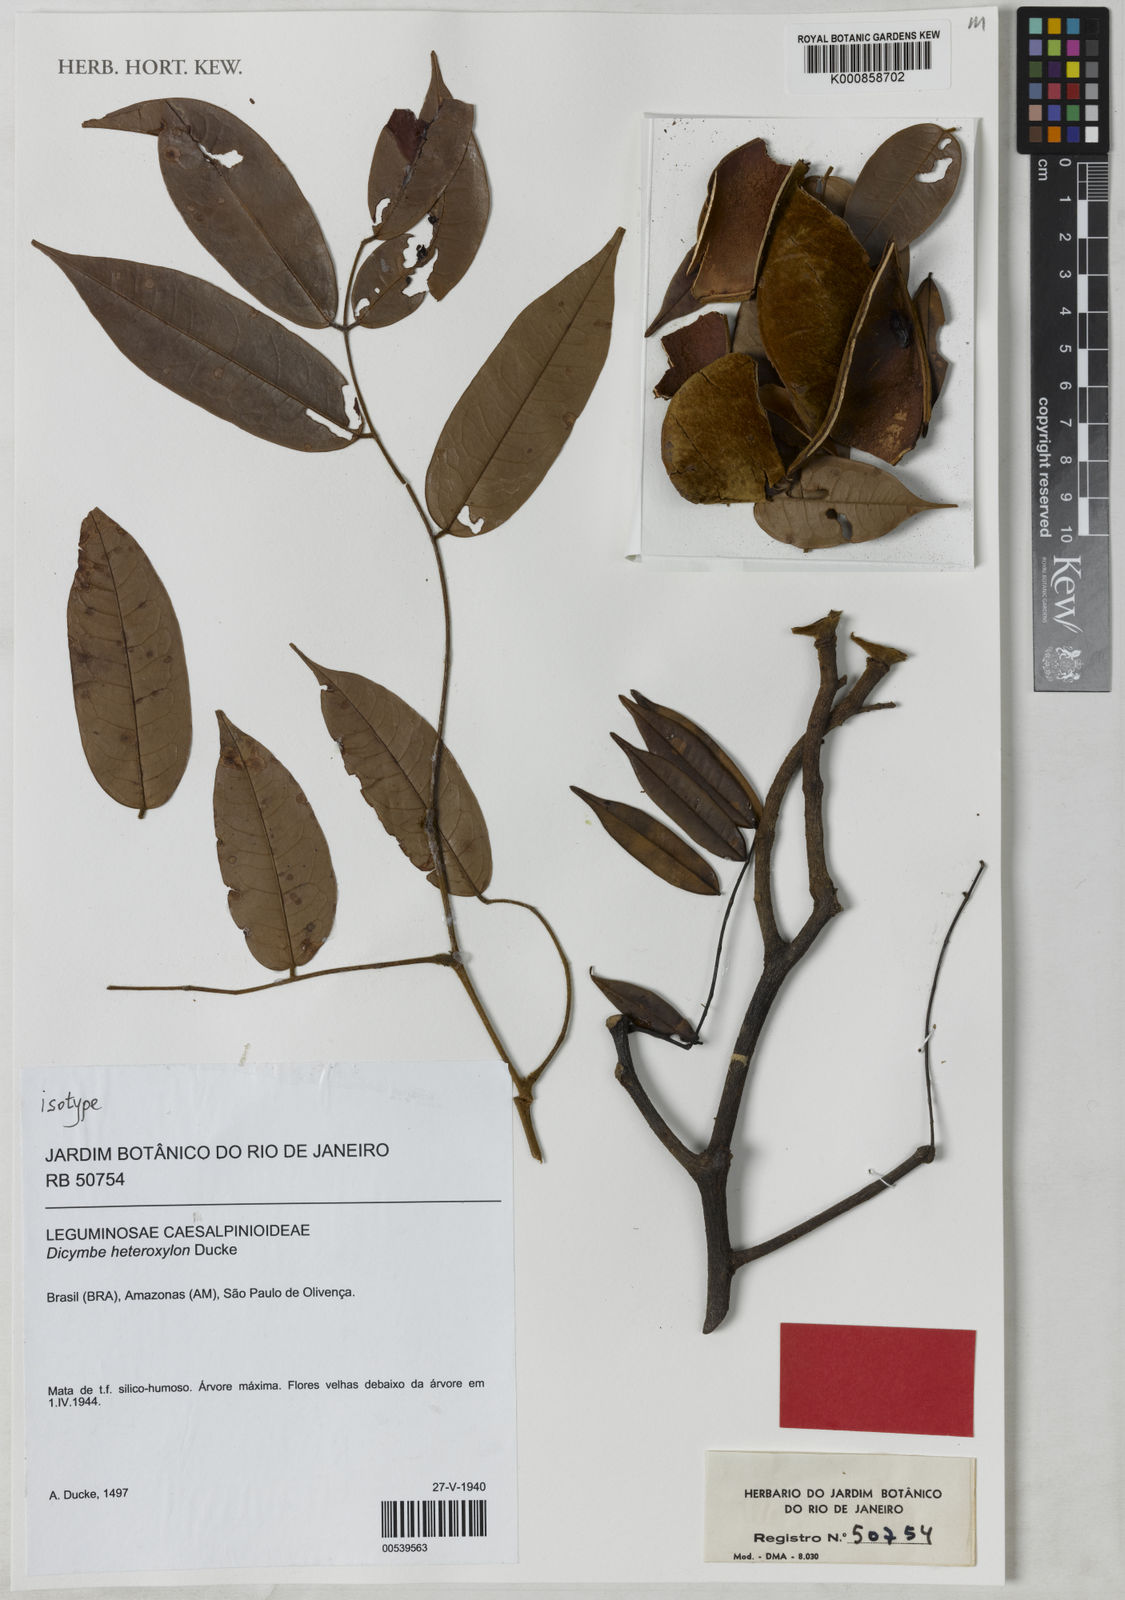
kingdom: Plantae
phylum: Tracheophyta
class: Magnoliopsida
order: Fabales
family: Fabaceae
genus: Dicymbe
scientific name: Dicymbe heteroxylon
